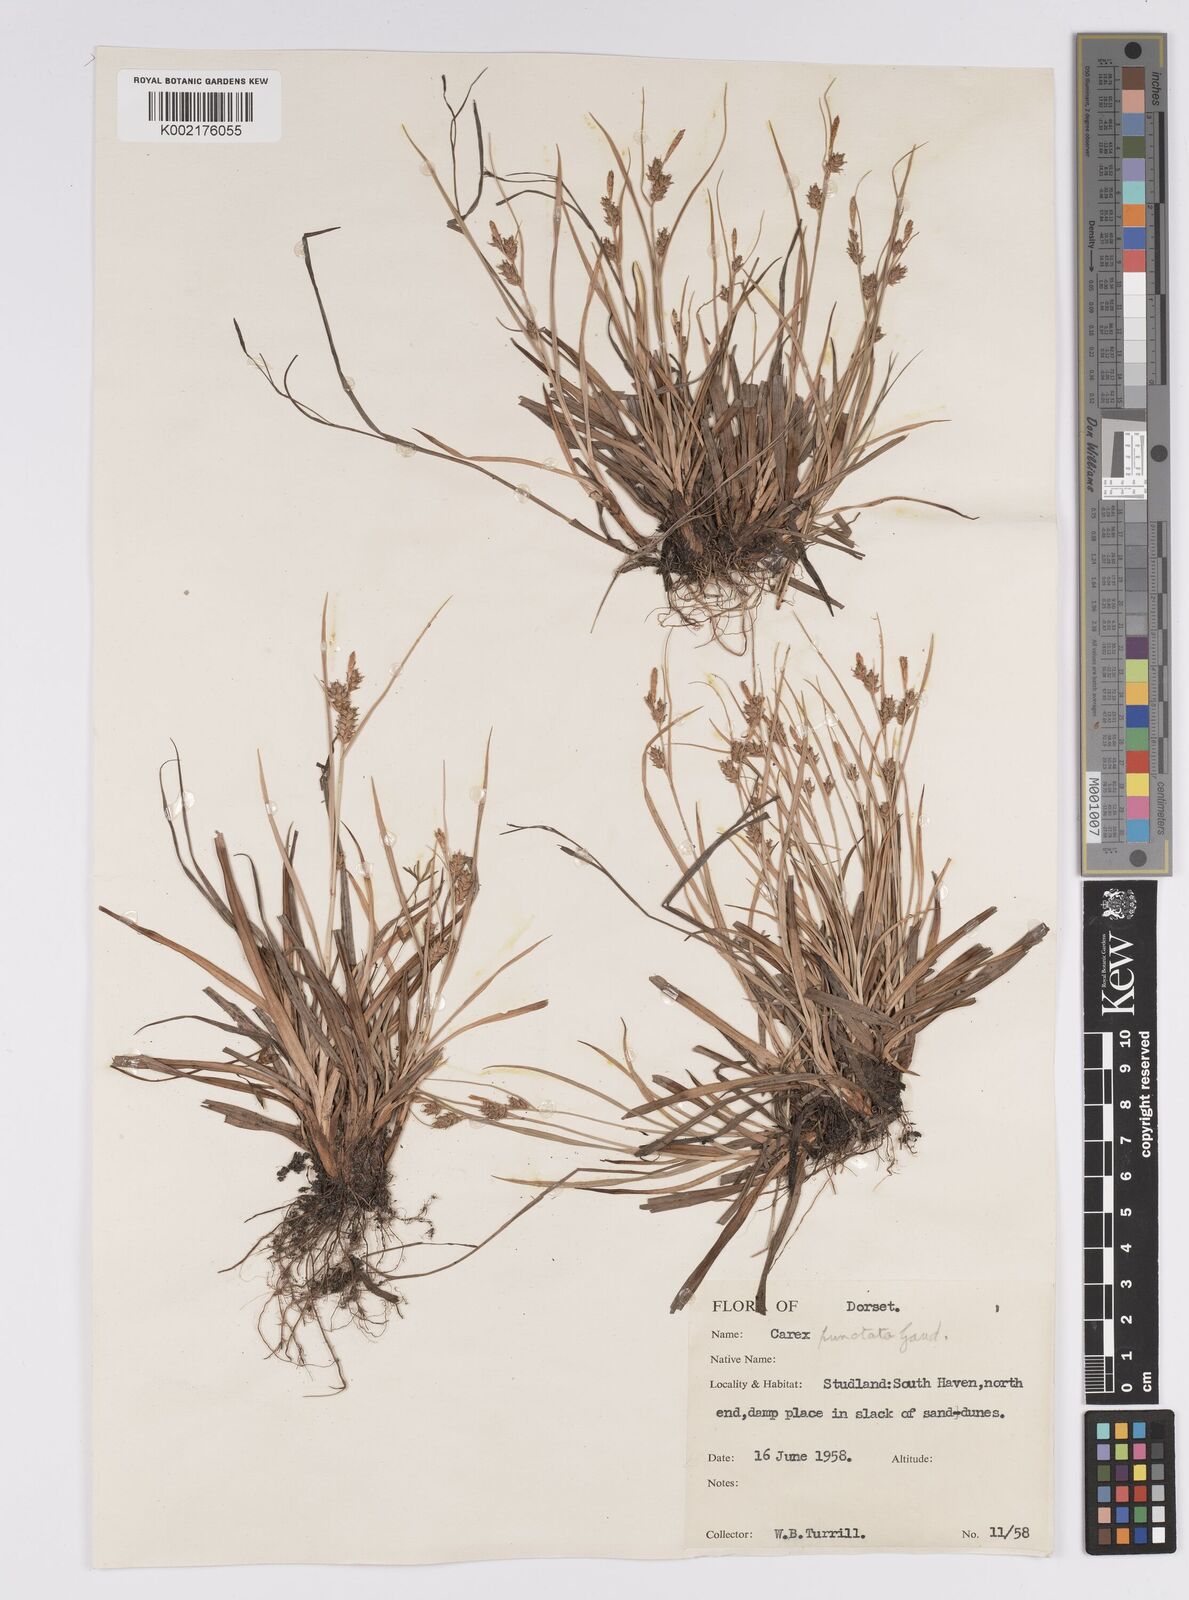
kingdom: Plantae
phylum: Tracheophyta
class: Liliopsida
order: Poales
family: Cyperaceae
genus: Carex
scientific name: Carex punctata
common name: Dotted sedge
